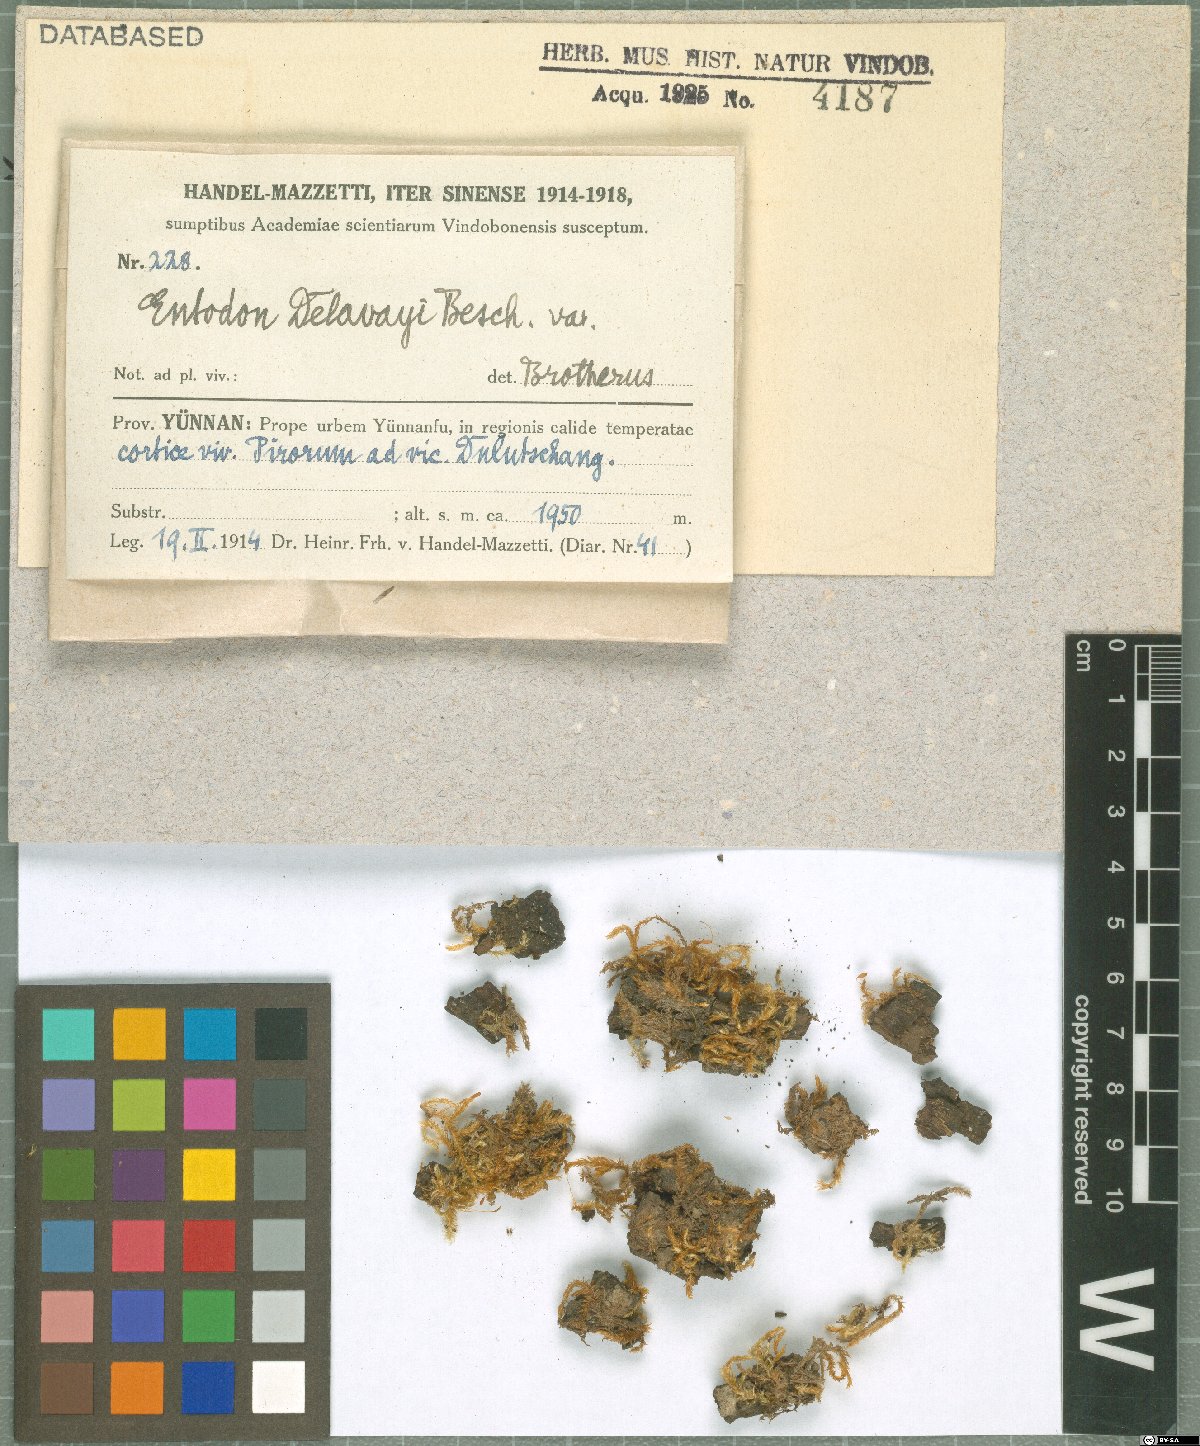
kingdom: Plantae
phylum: Bryophyta
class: Bryopsida
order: Hypnales
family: Entodontaceae
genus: Entodon
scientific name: Entodon macropodus
